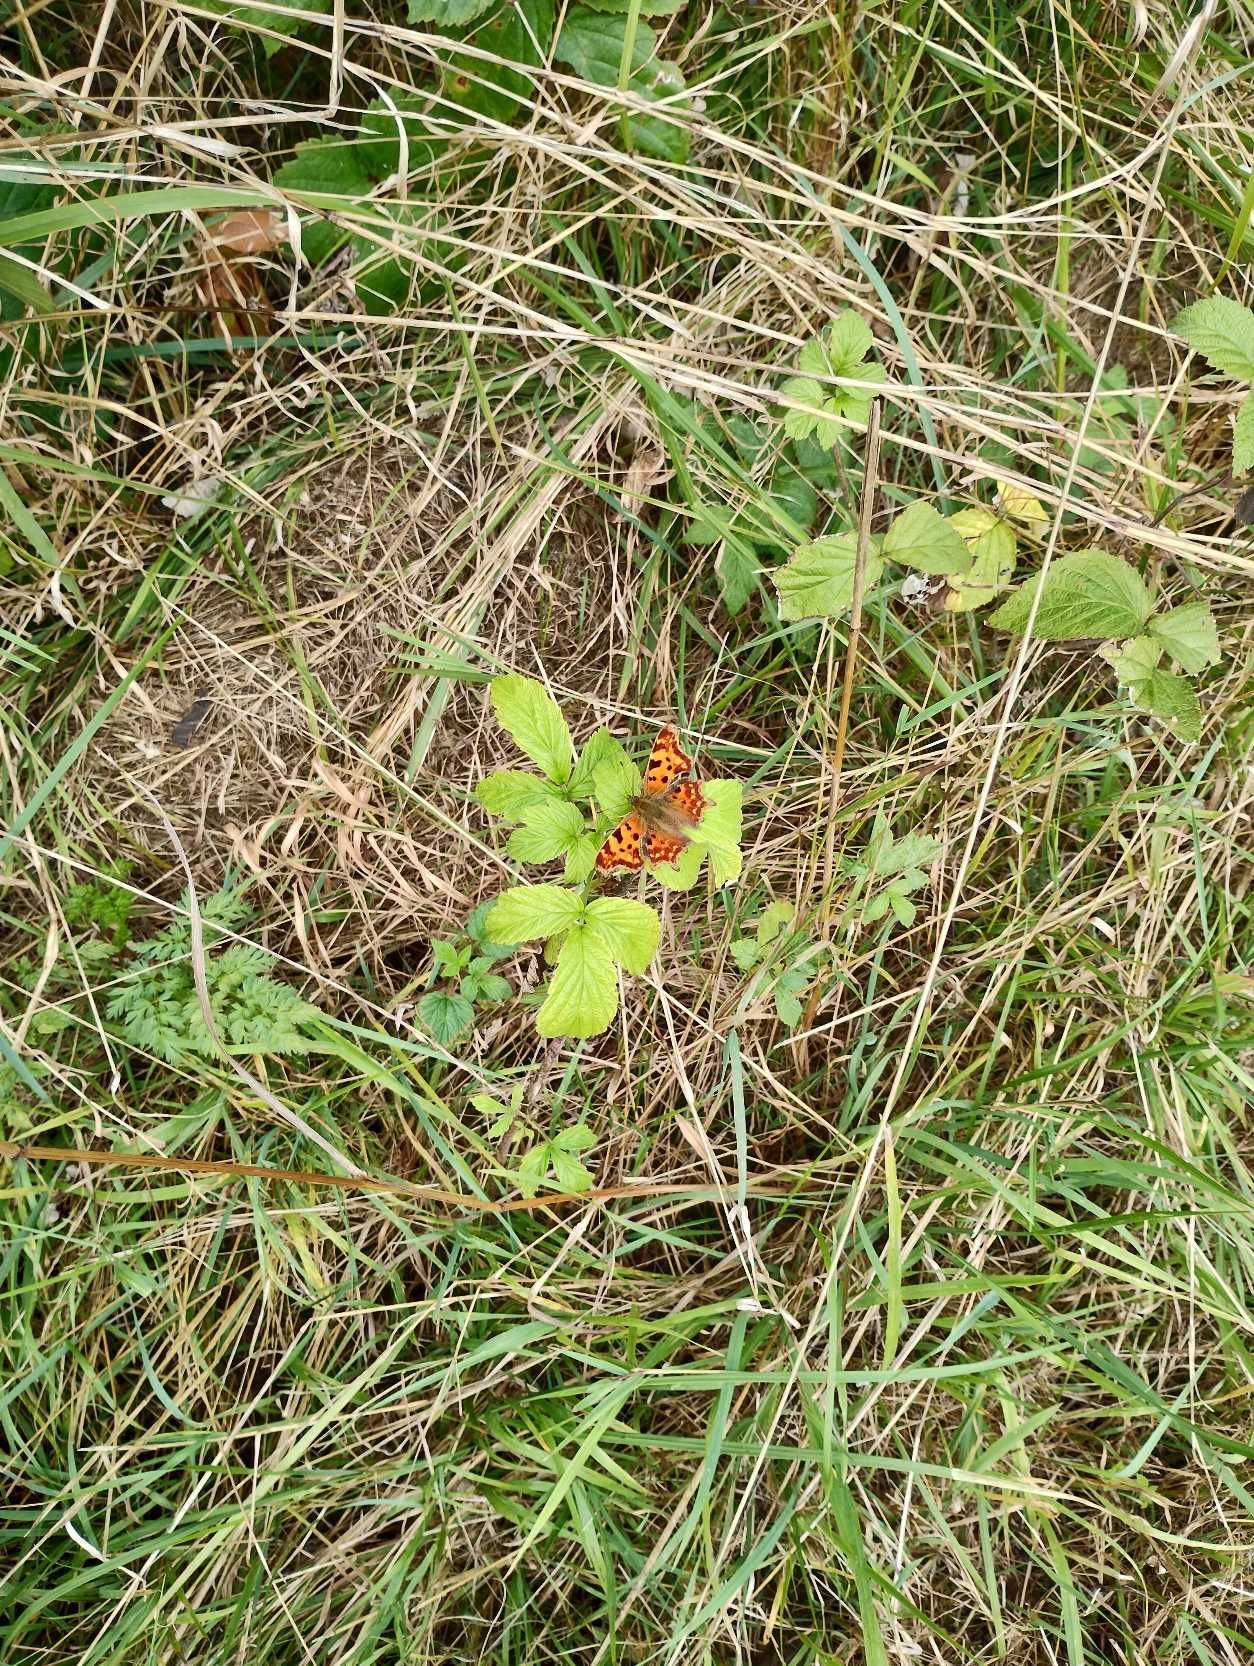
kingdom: Animalia
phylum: Arthropoda
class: Insecta
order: Lepidoptera
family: Nymphalidae
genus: Polygonia
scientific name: Polygonia c-album
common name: Det hvide C
